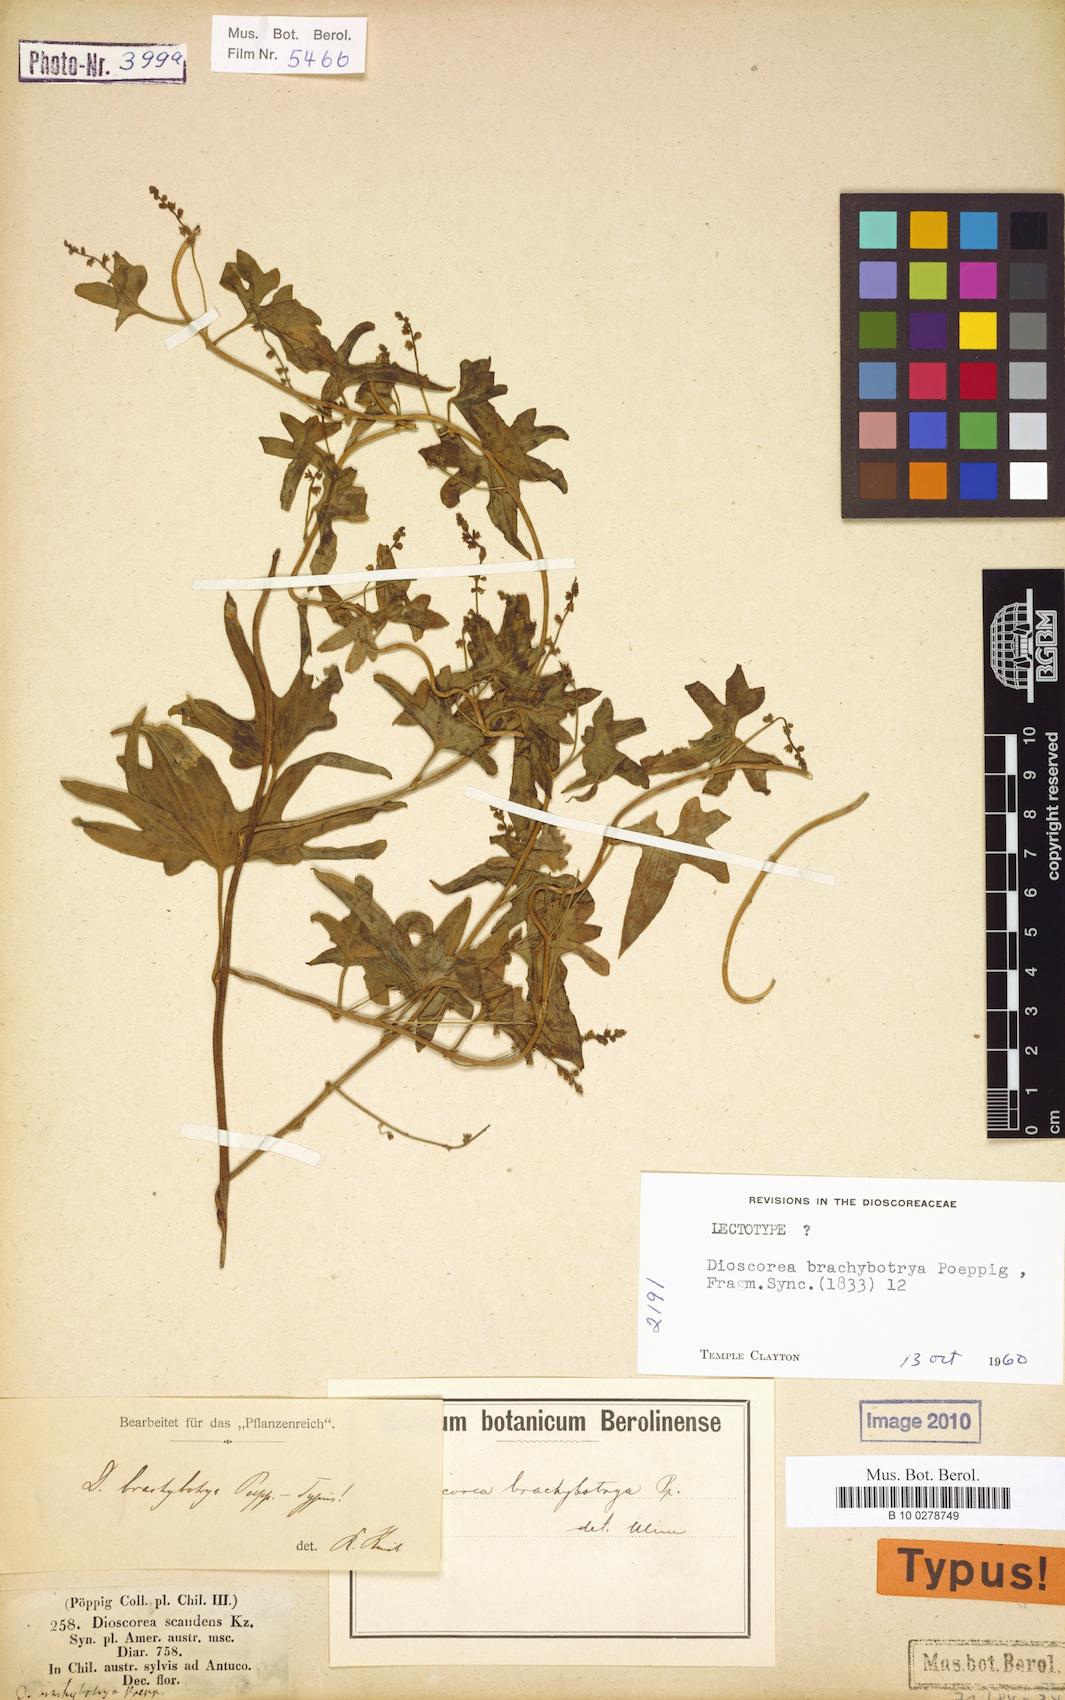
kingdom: Plantae
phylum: Tracheophyta
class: Liliopsida
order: Dioscoreales
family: Dioscoreaceae
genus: Dioscorea
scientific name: Dioscorea brachybotrya
